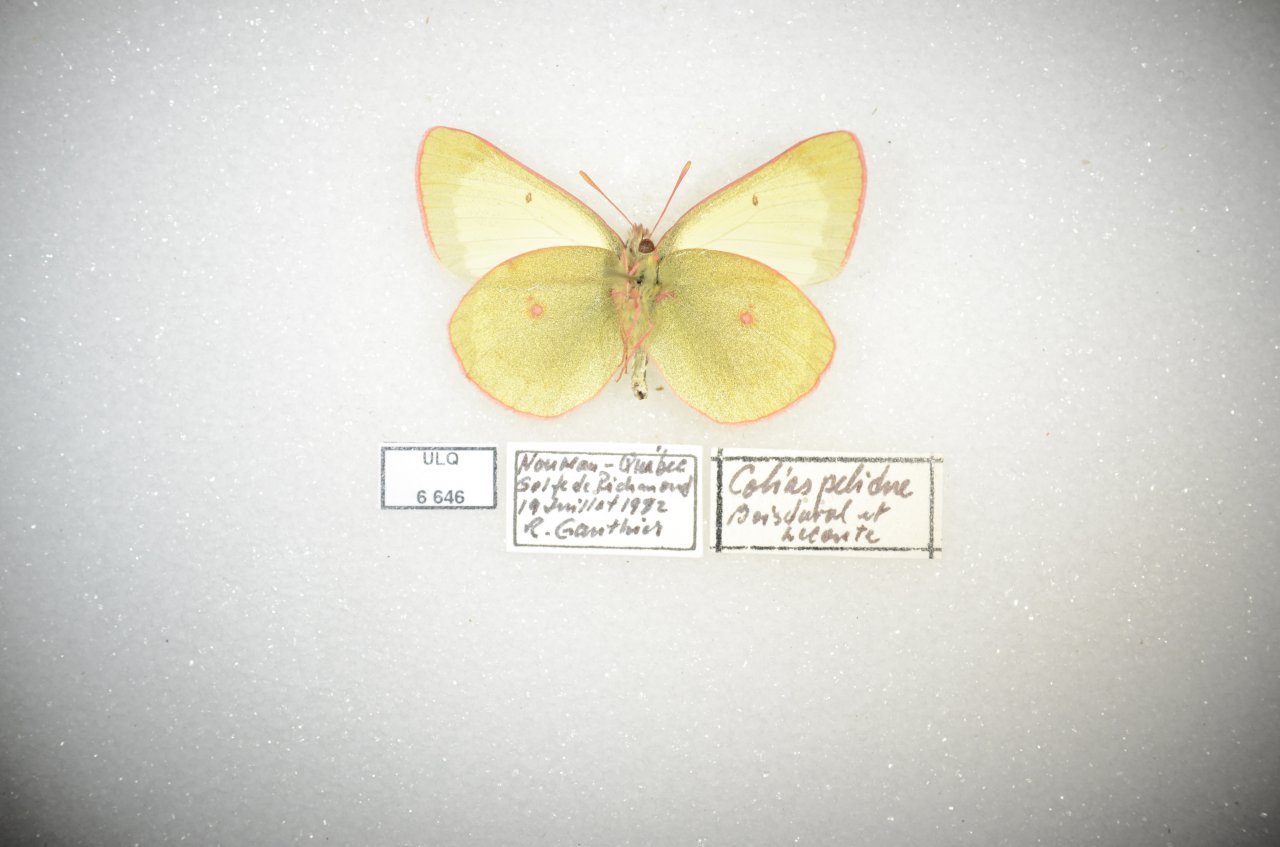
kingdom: Animalia
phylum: Arthropoda
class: Insecta
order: Lepidoptera
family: Pieridae
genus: Colias
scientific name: Colias palaeno
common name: Chippewa Sulphur
